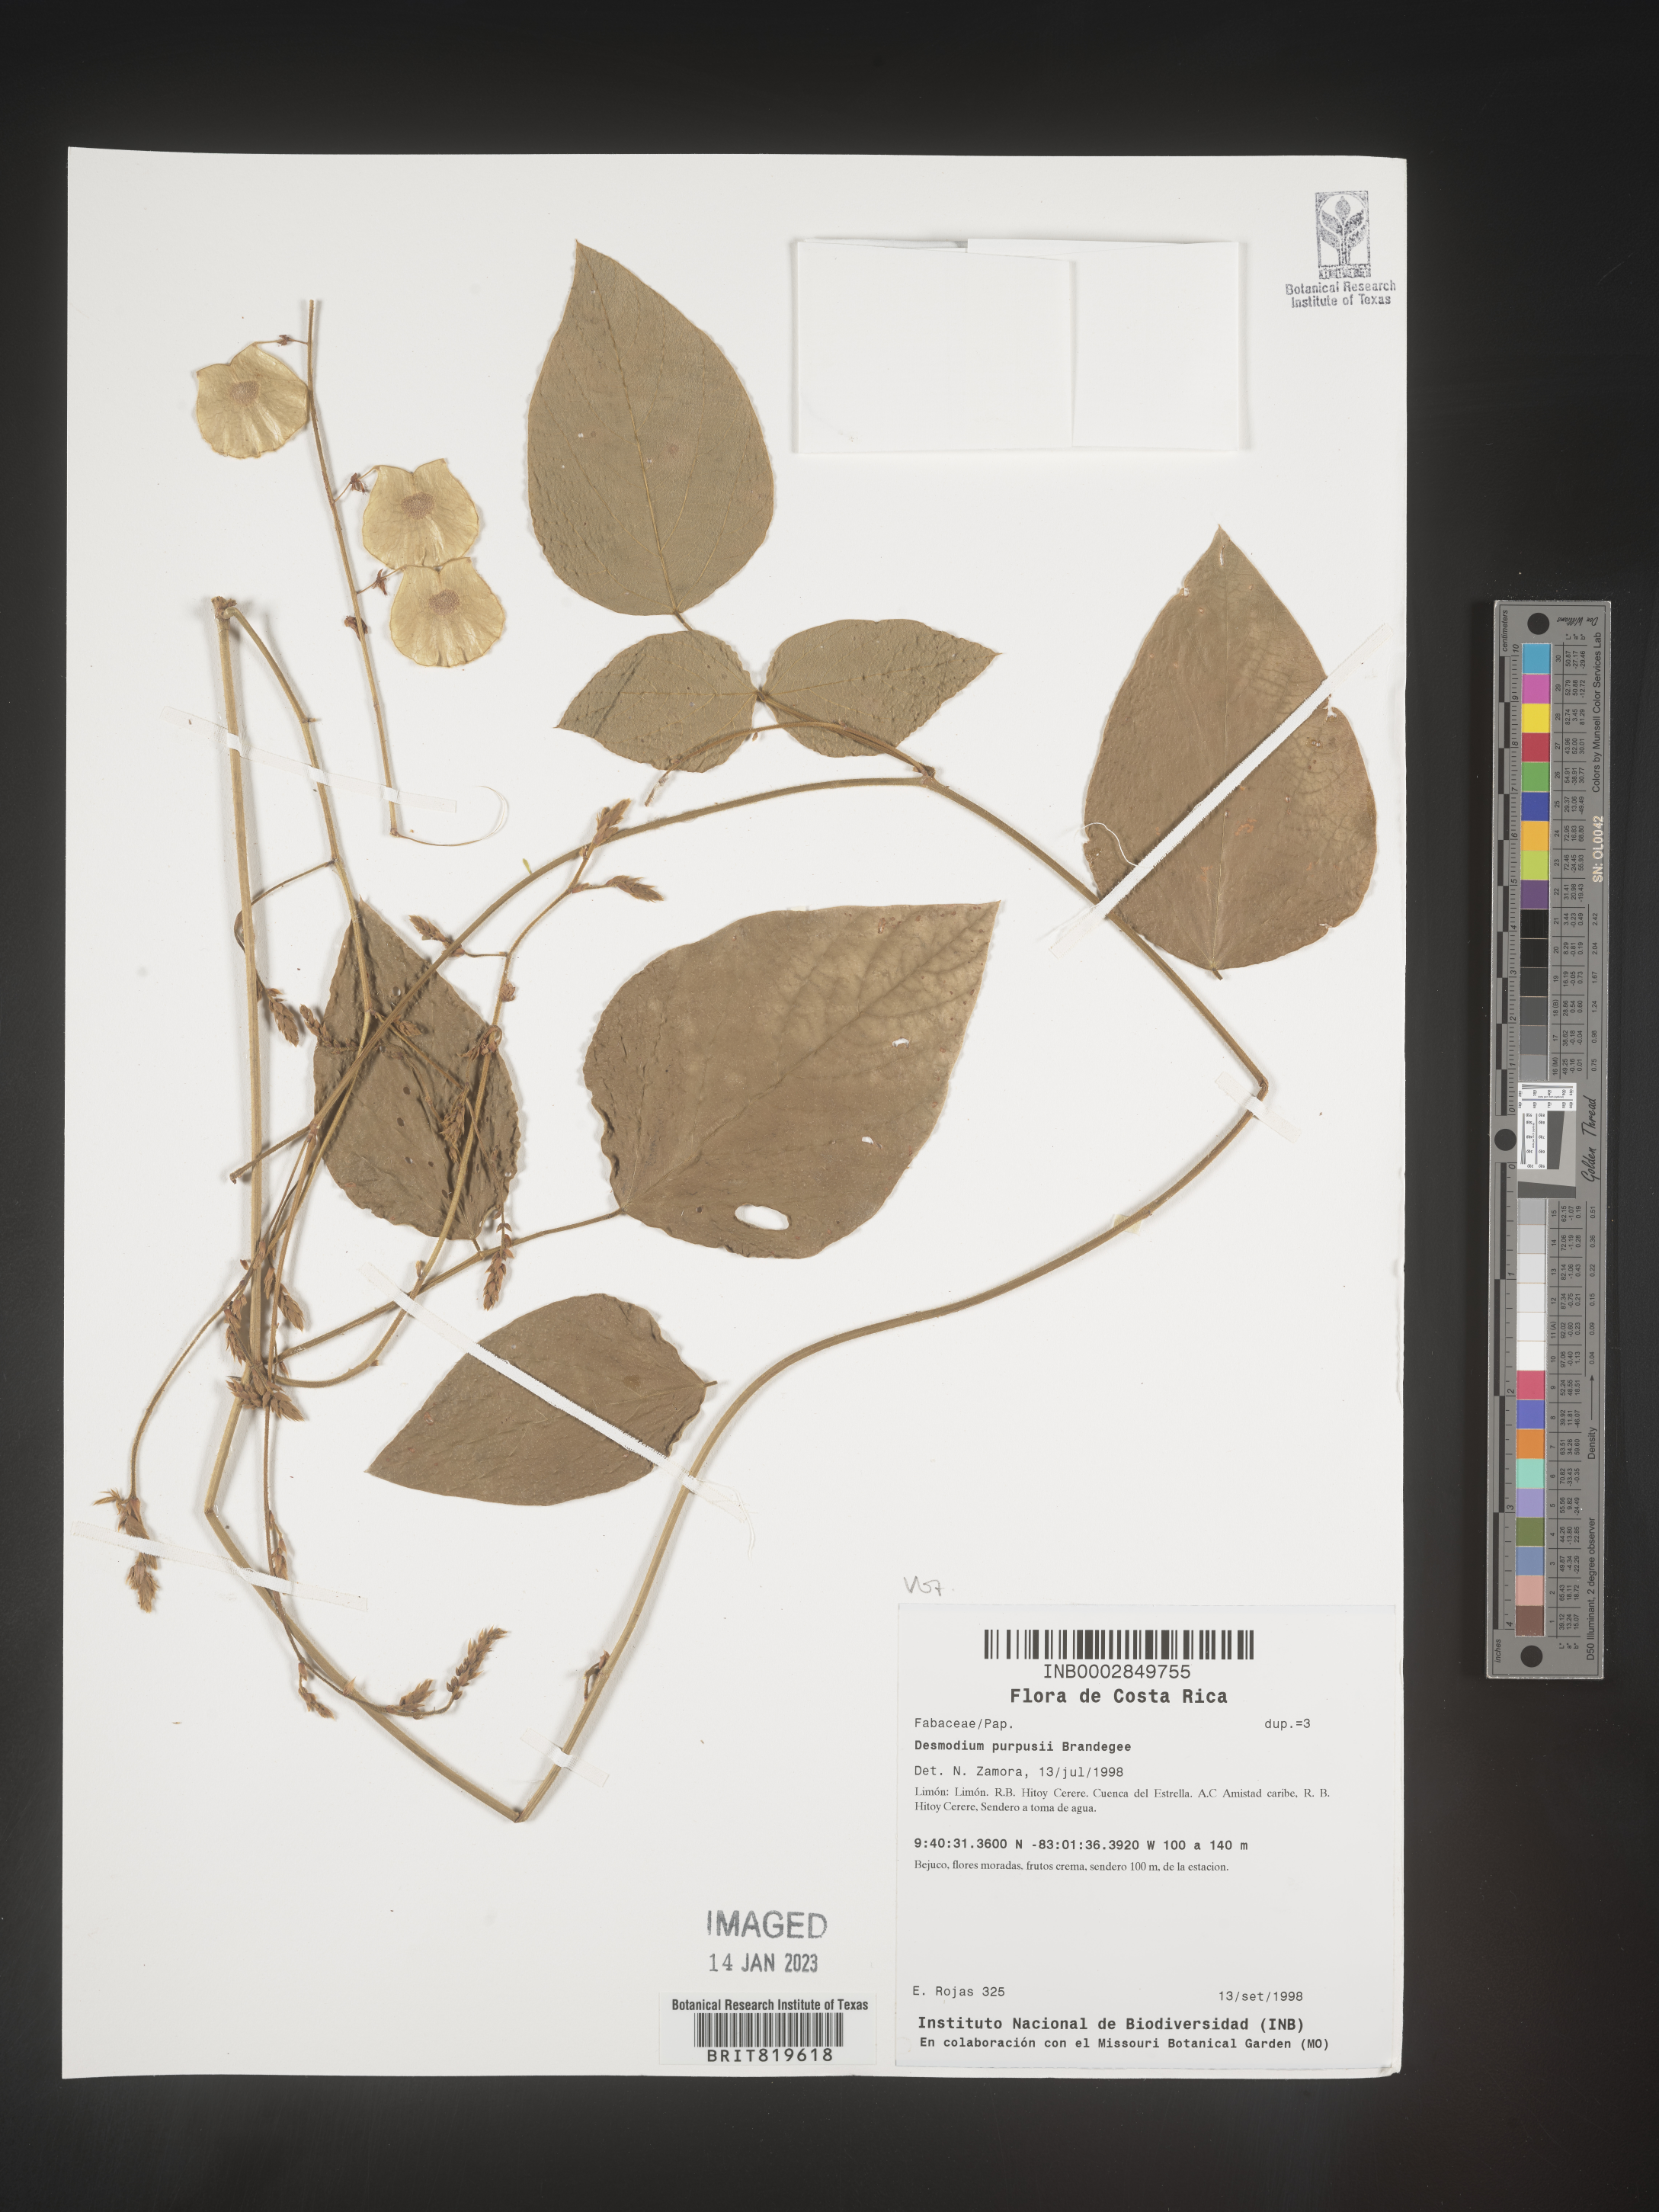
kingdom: Plantae
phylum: Tracheophyta
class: Magnoliopsida
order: Fabales
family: Fabaceae
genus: Desmodium
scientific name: Desmodium
